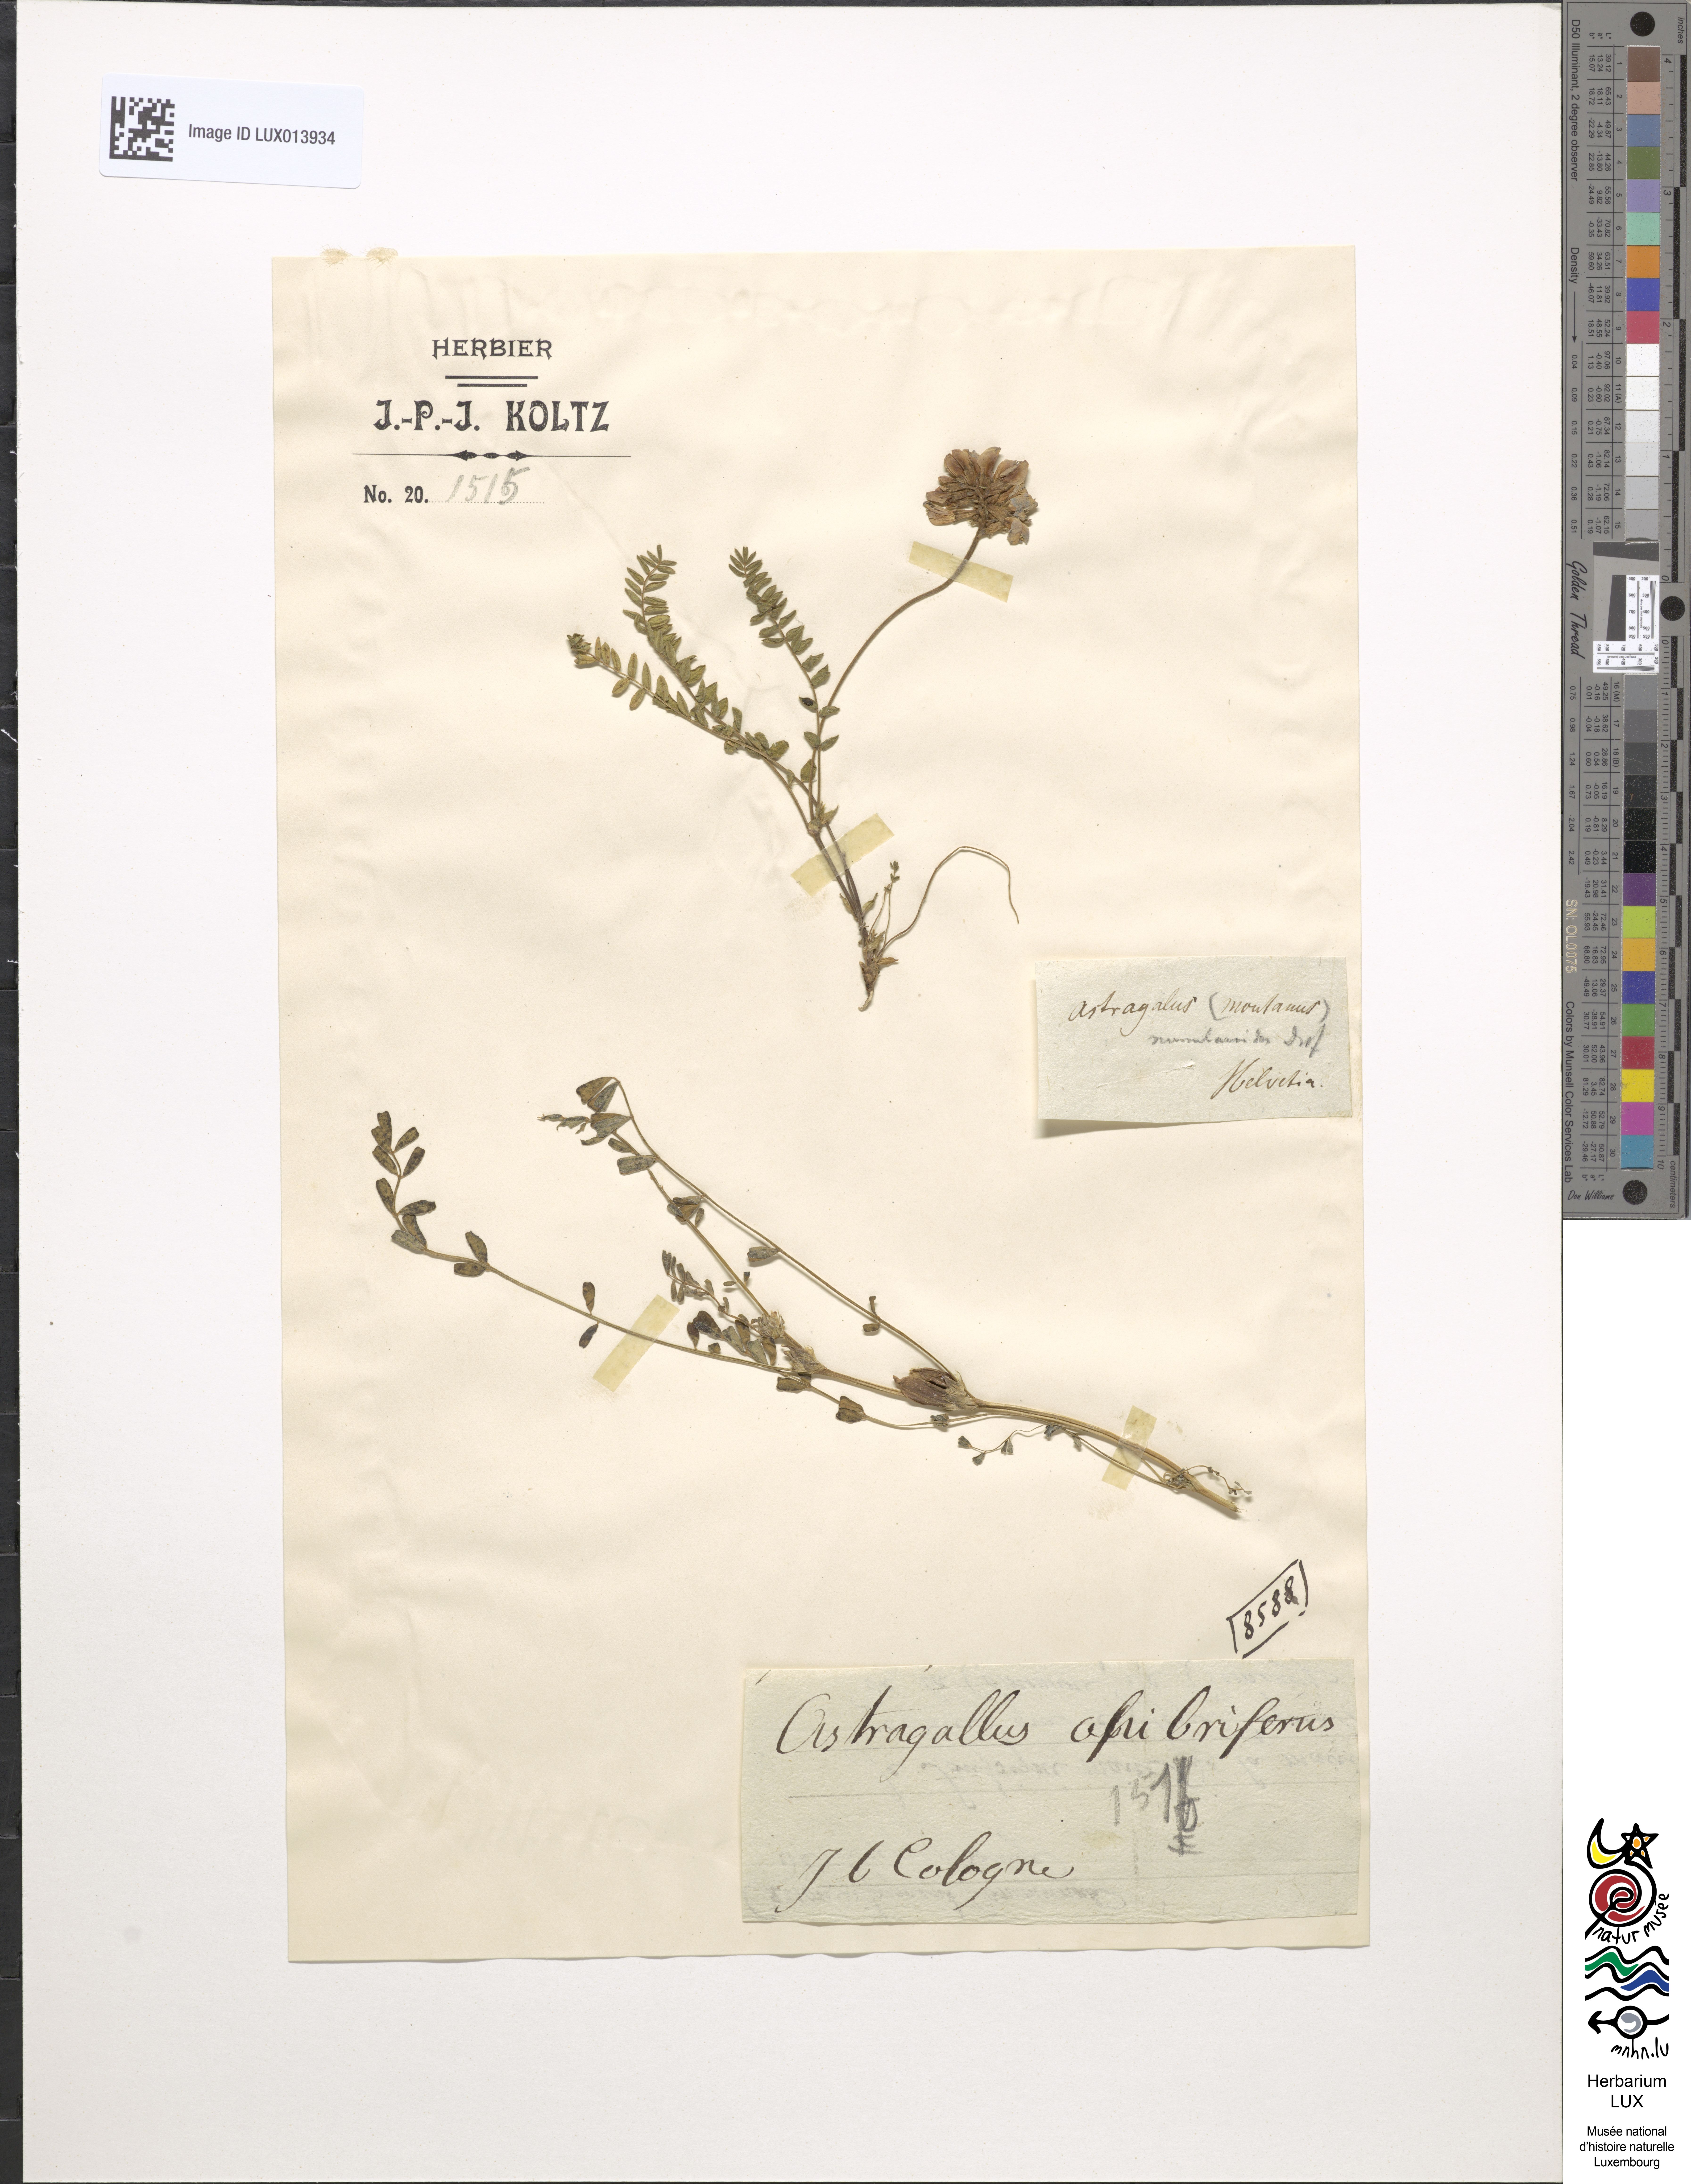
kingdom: Plantae
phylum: Tracheophyta
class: Magnoliopsida
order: Fabales
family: Fabaceae
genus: Astragalus
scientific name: Astragalus
